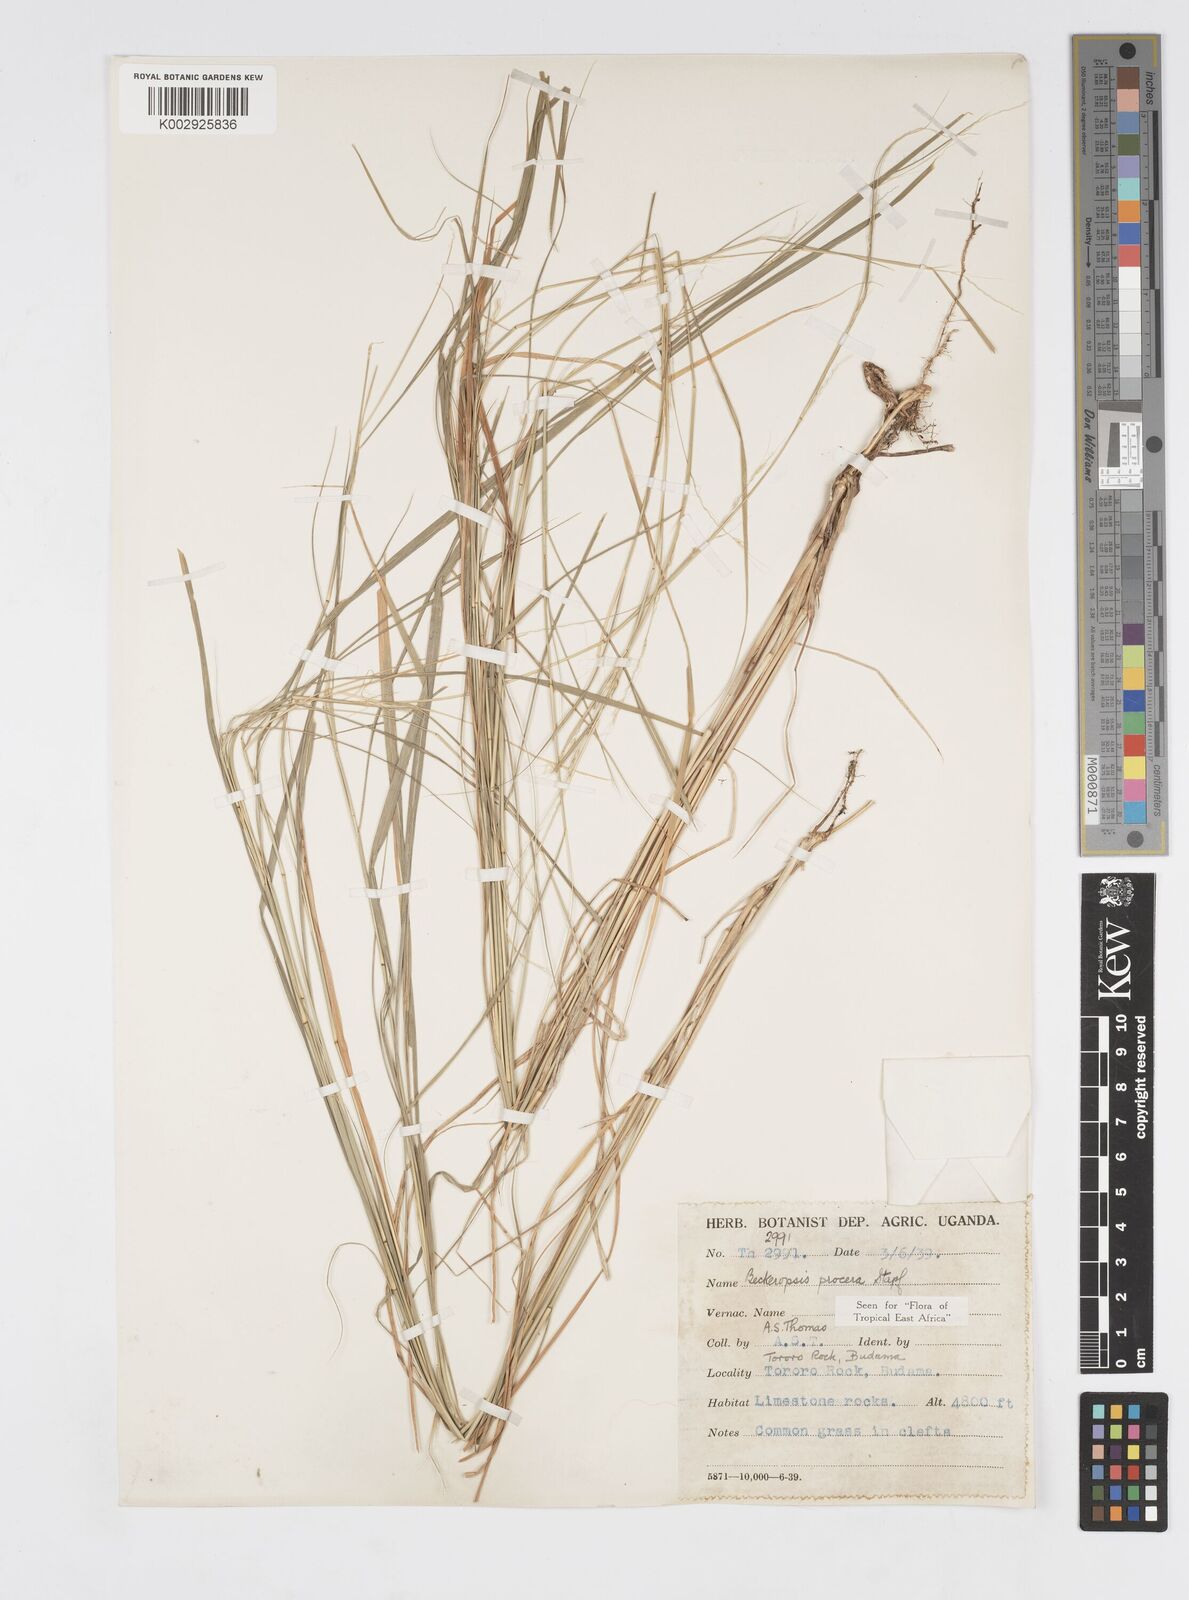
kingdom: Plantae
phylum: Tracheophyta
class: Liliopsida
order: Poales
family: Poaceae
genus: Cenchrus
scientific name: Cenchrus procerus
